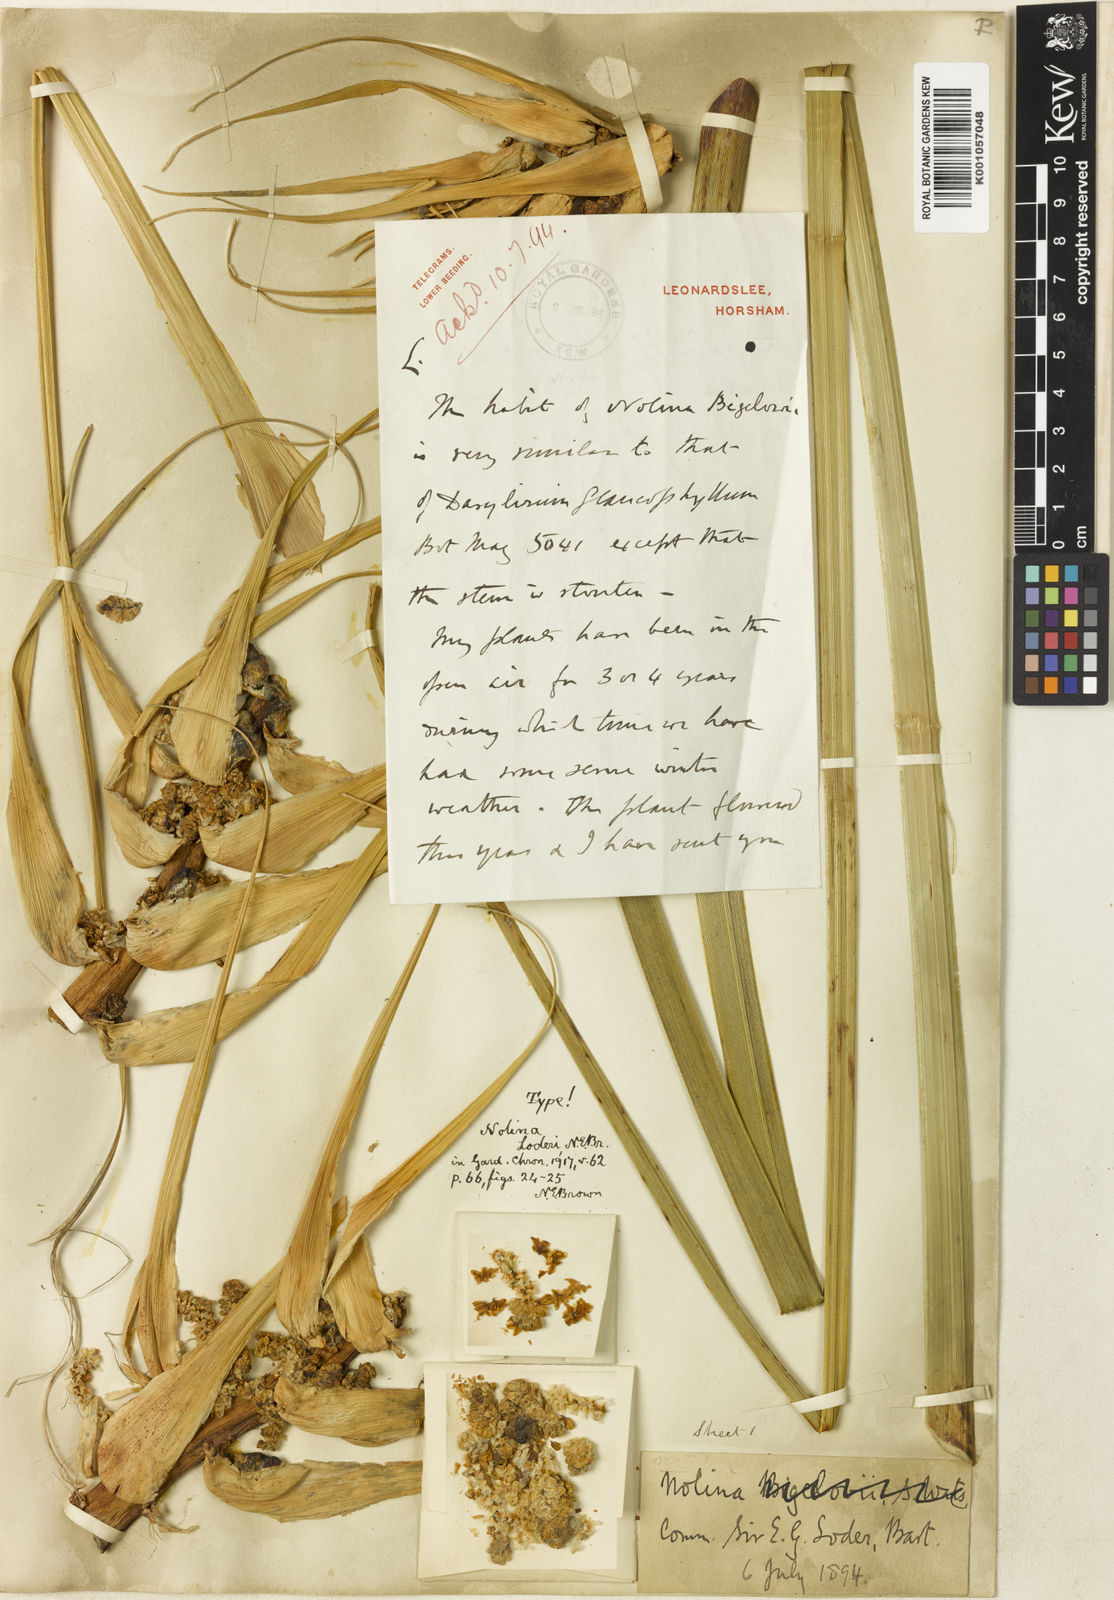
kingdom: Plantae
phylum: Tracheophyta
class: Liliopsida
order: Asparagales
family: Asparagaceae
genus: Nolina
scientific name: Nolina georgiana
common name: Georgia bear-grass
